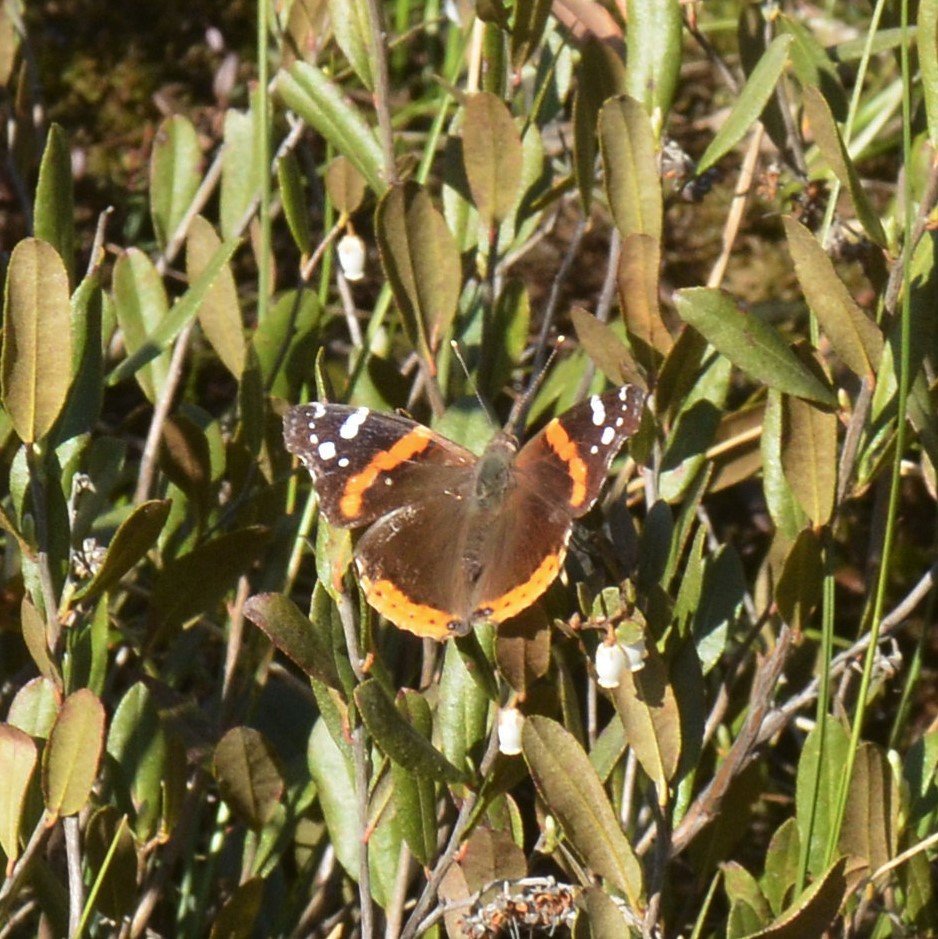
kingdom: Animalia
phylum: Arthropoda
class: Insecta
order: Lepidoptera
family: Nymphalidae
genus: Vanessa
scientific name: Vanessa atalanta
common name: Red Admiral
